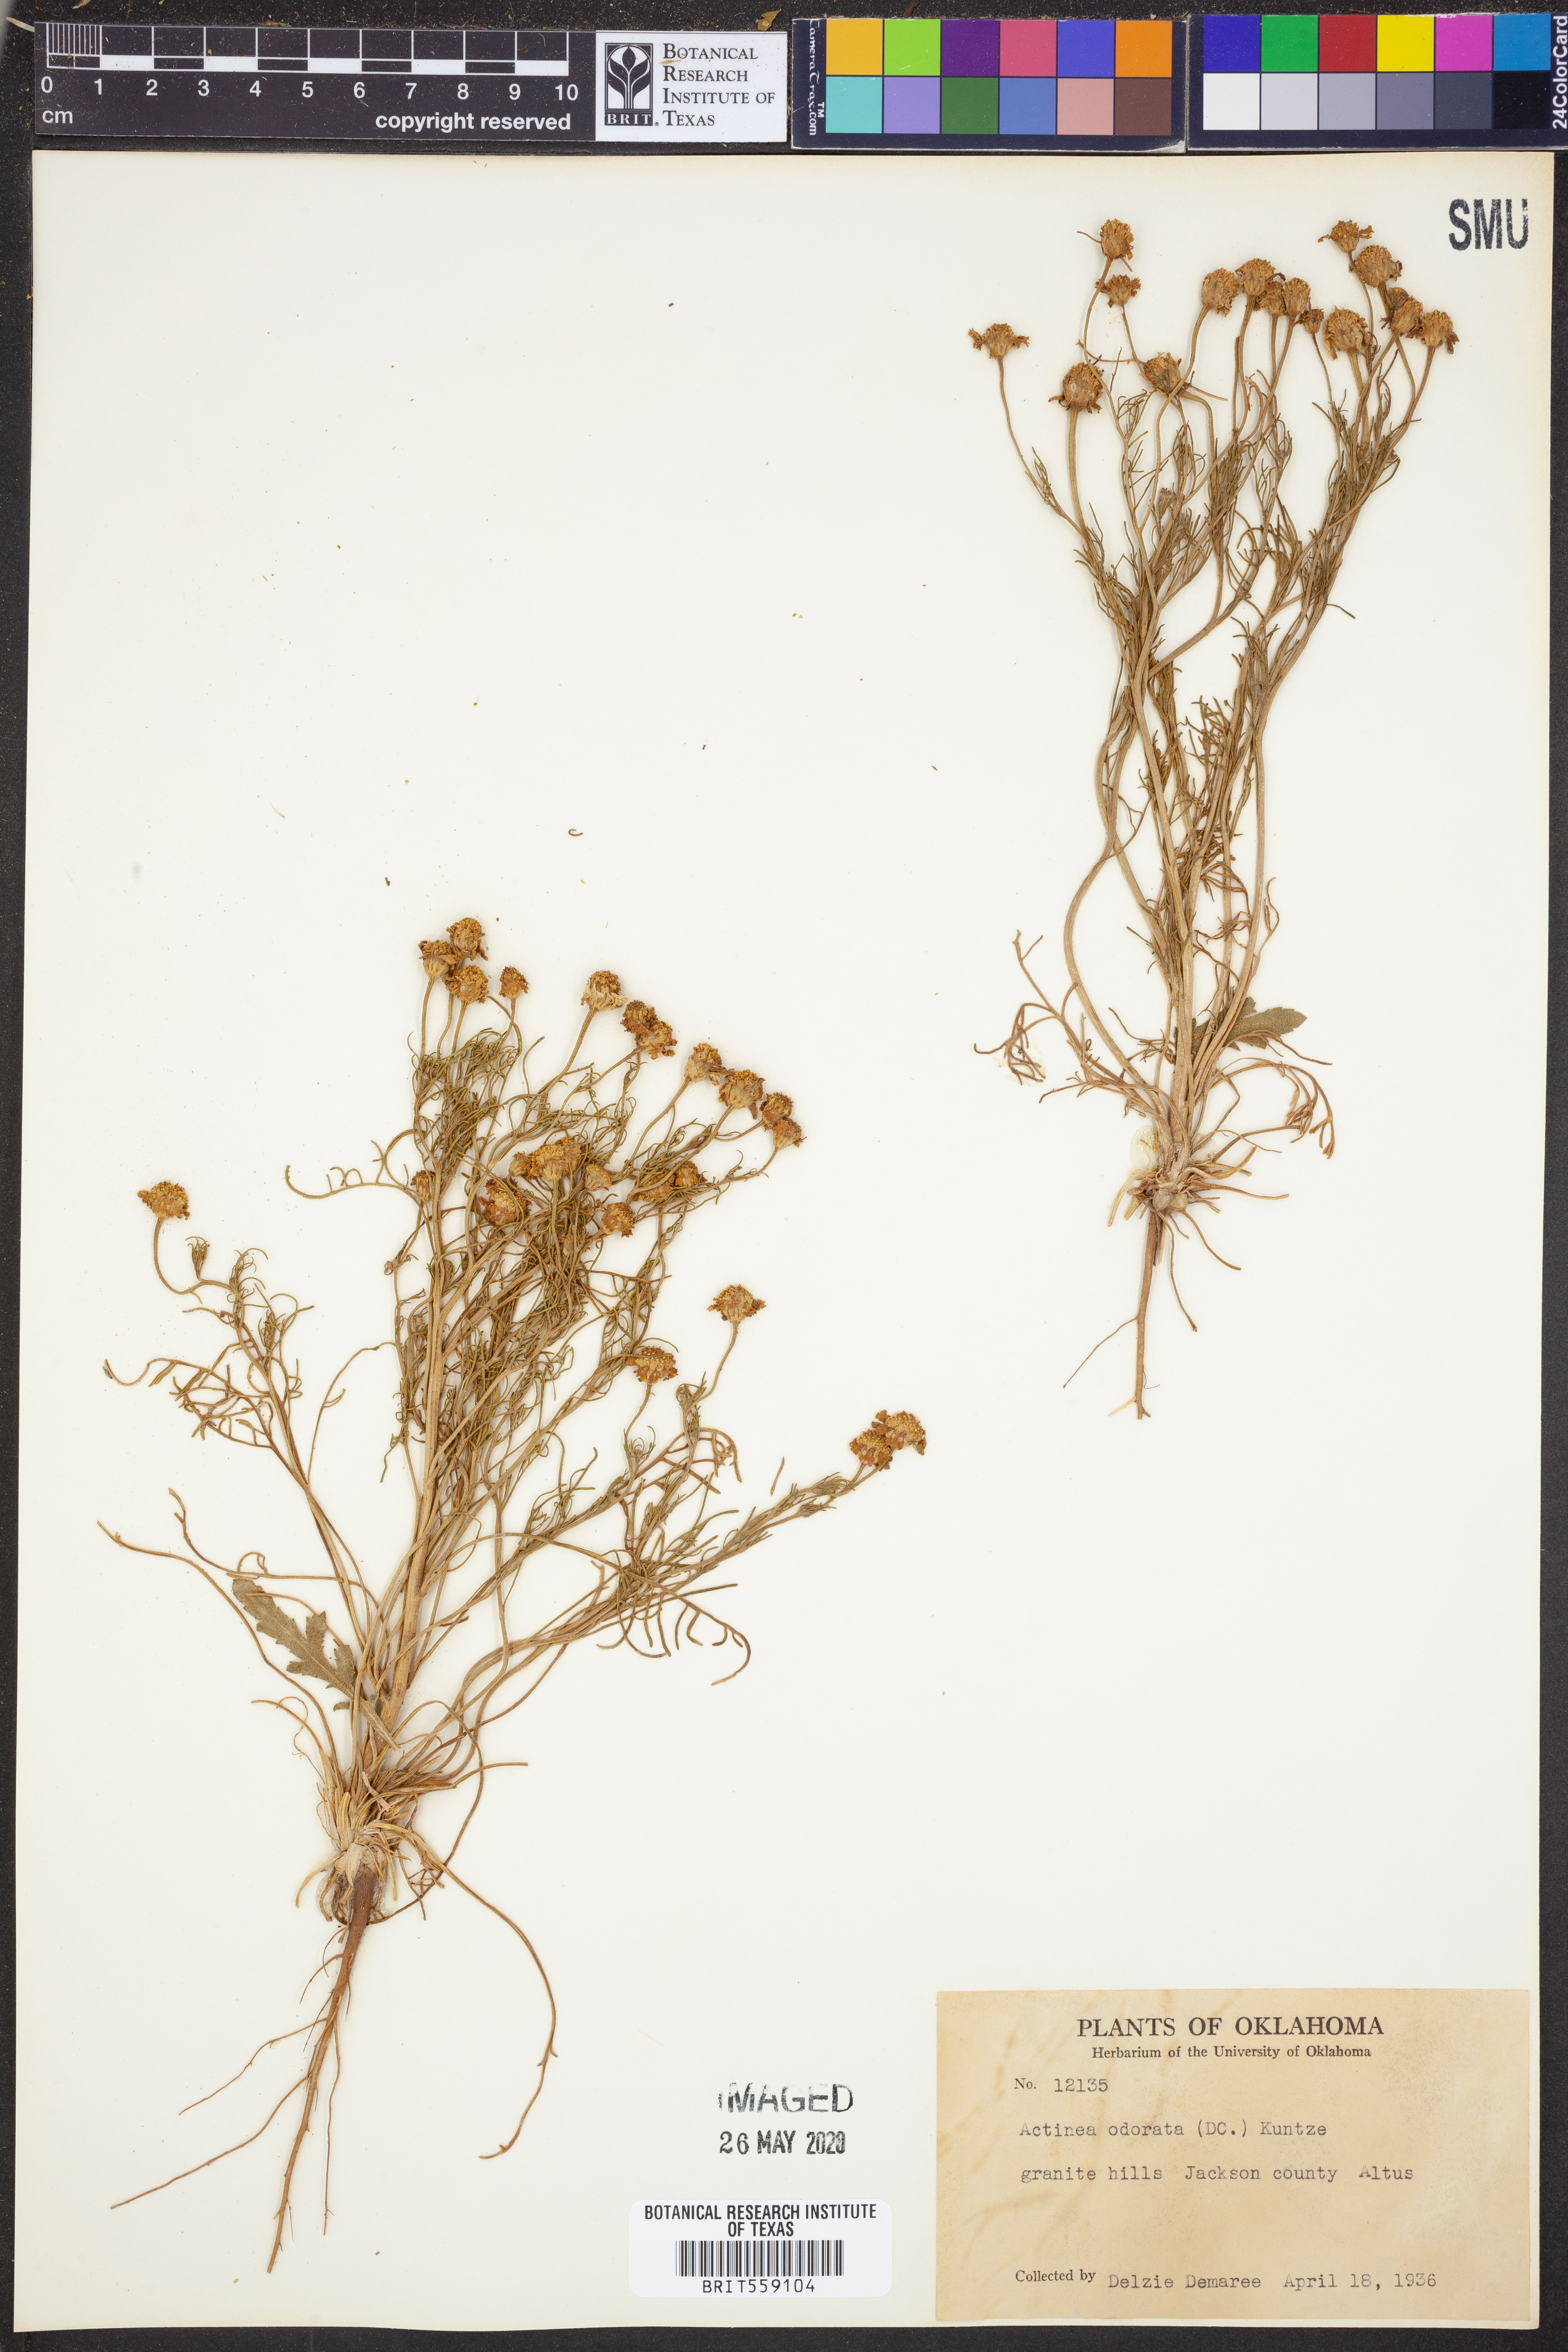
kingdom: Plantae
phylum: Tracheophyta
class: Magnoliopsida
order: Asterales
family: Asteraceae
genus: Hymenoxys
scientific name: Hymenoxys odorata
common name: Bitter rubberweed
